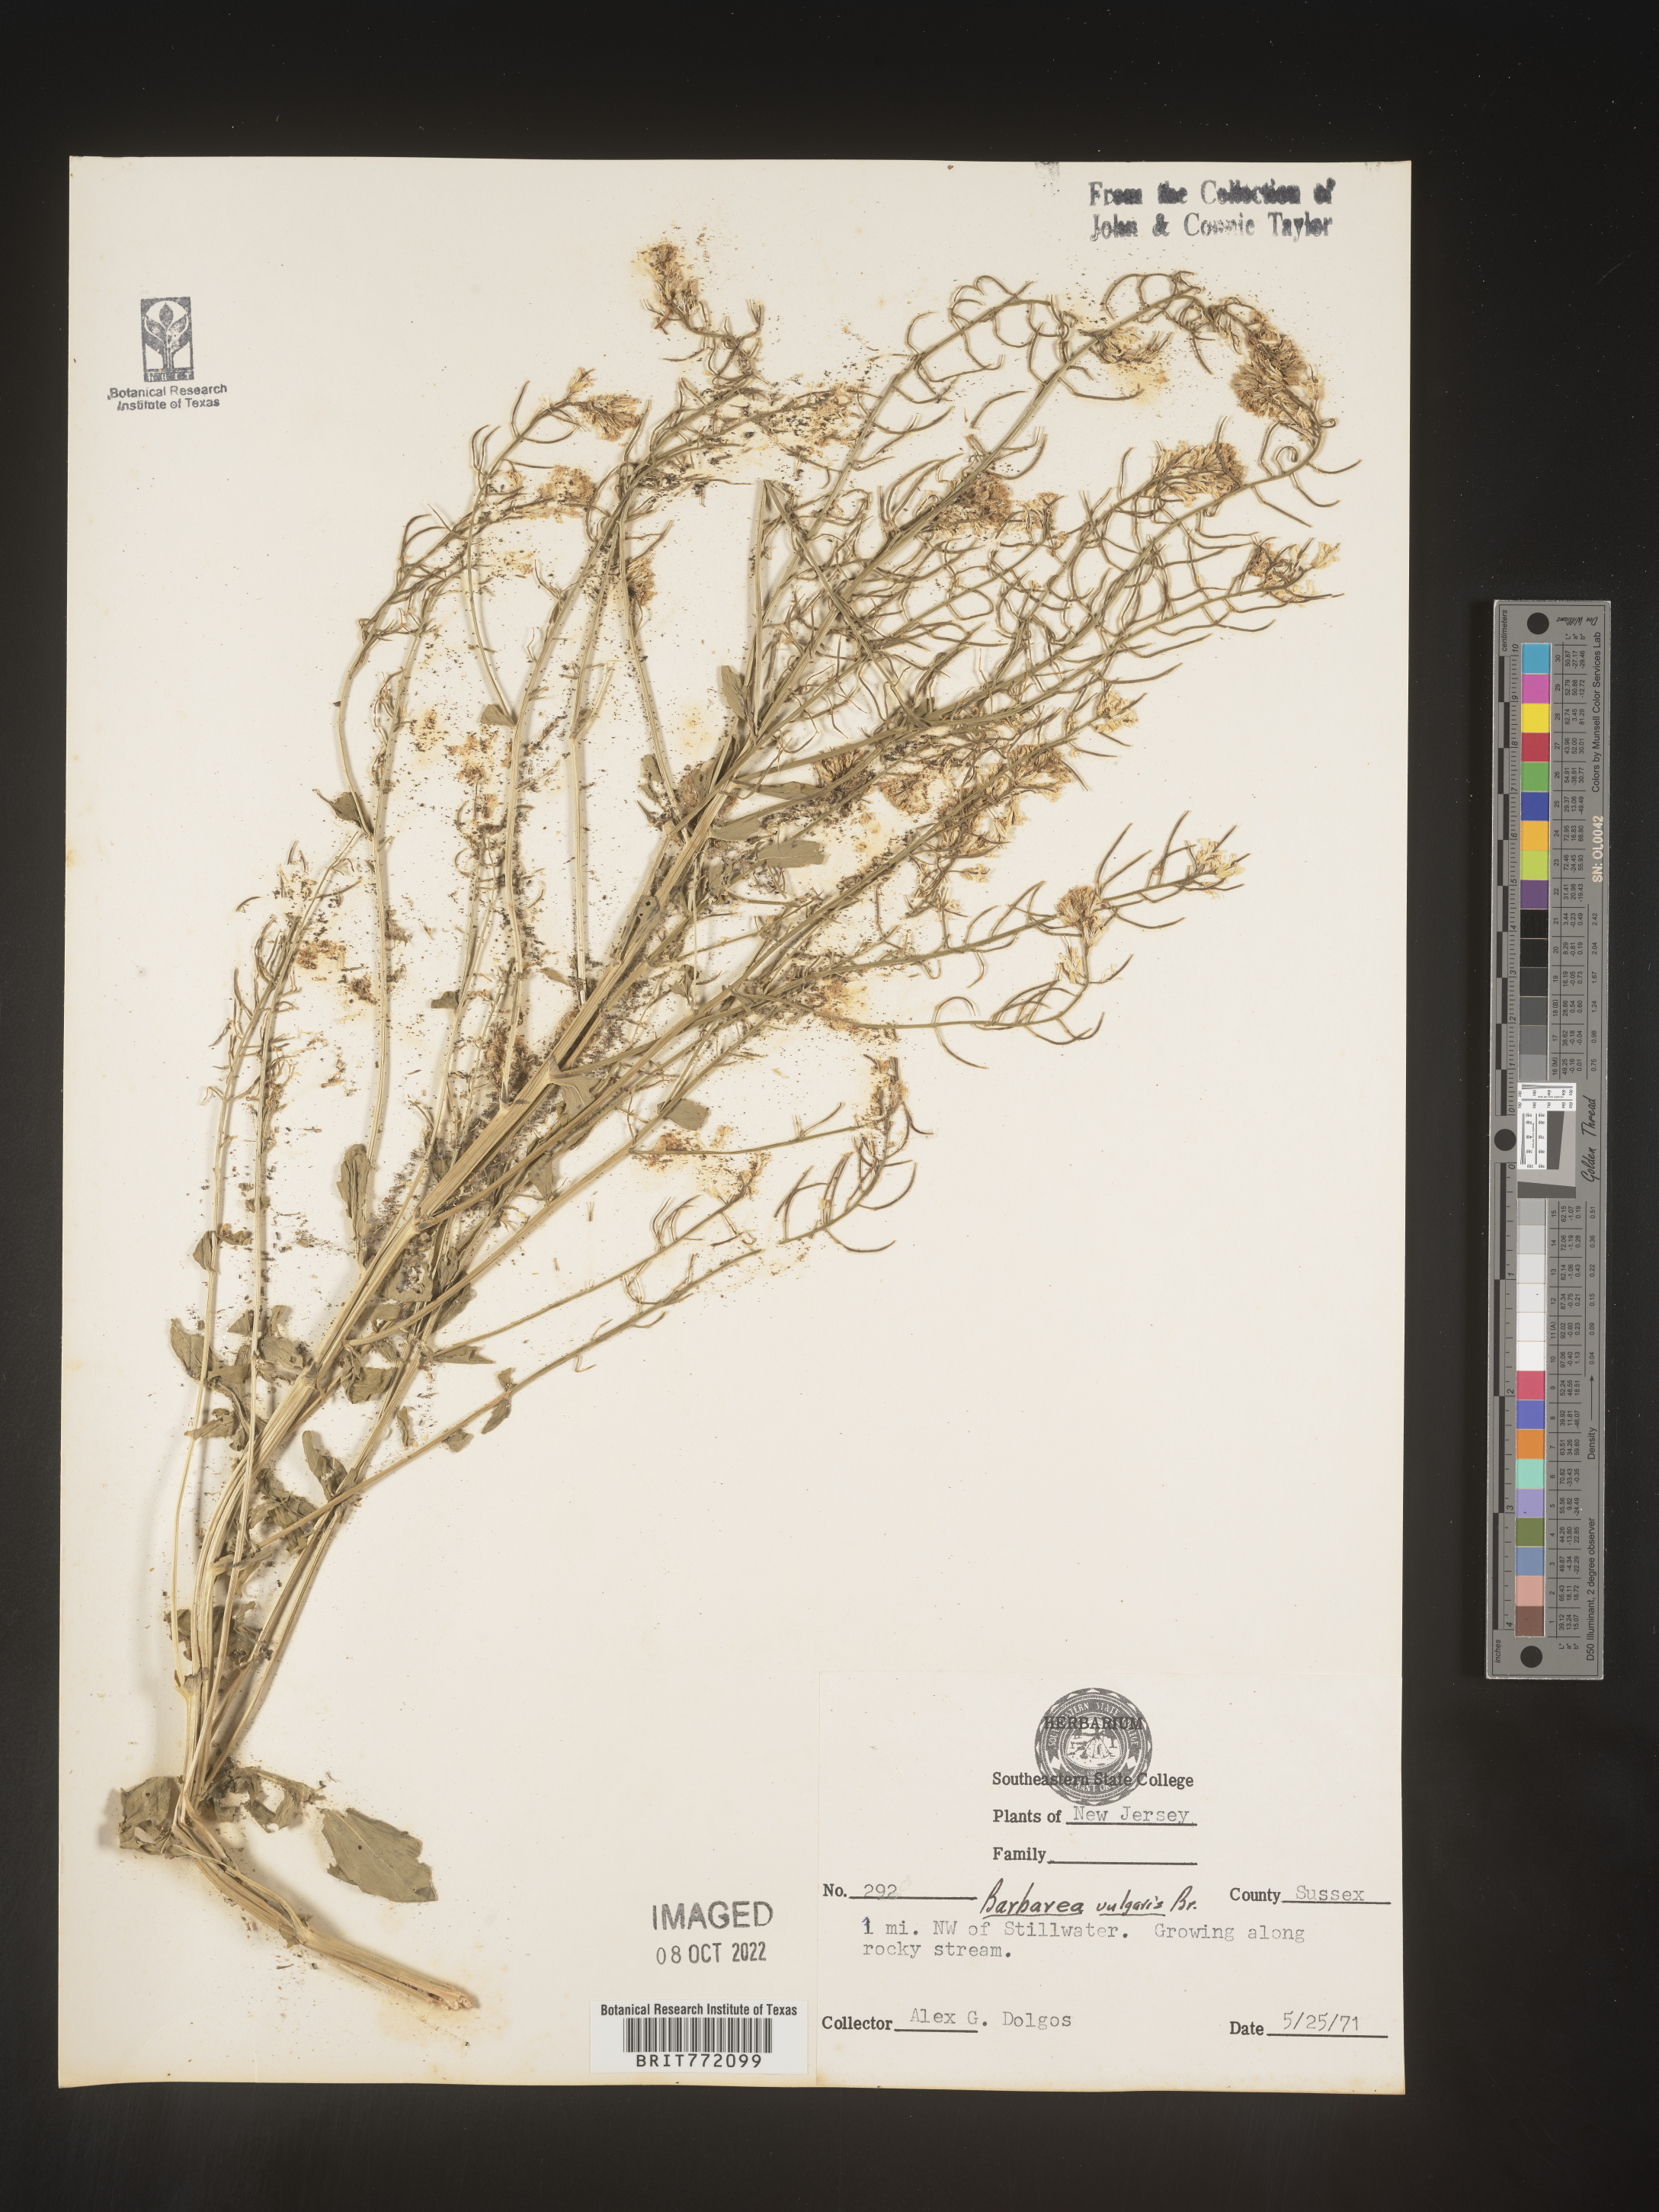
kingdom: Plantae
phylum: Tracheophyta
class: Magnoliopsida
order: Brassicales
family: Brassicaceae
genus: Barbarea
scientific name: Barbarea vulgaris
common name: Cressy-greens
